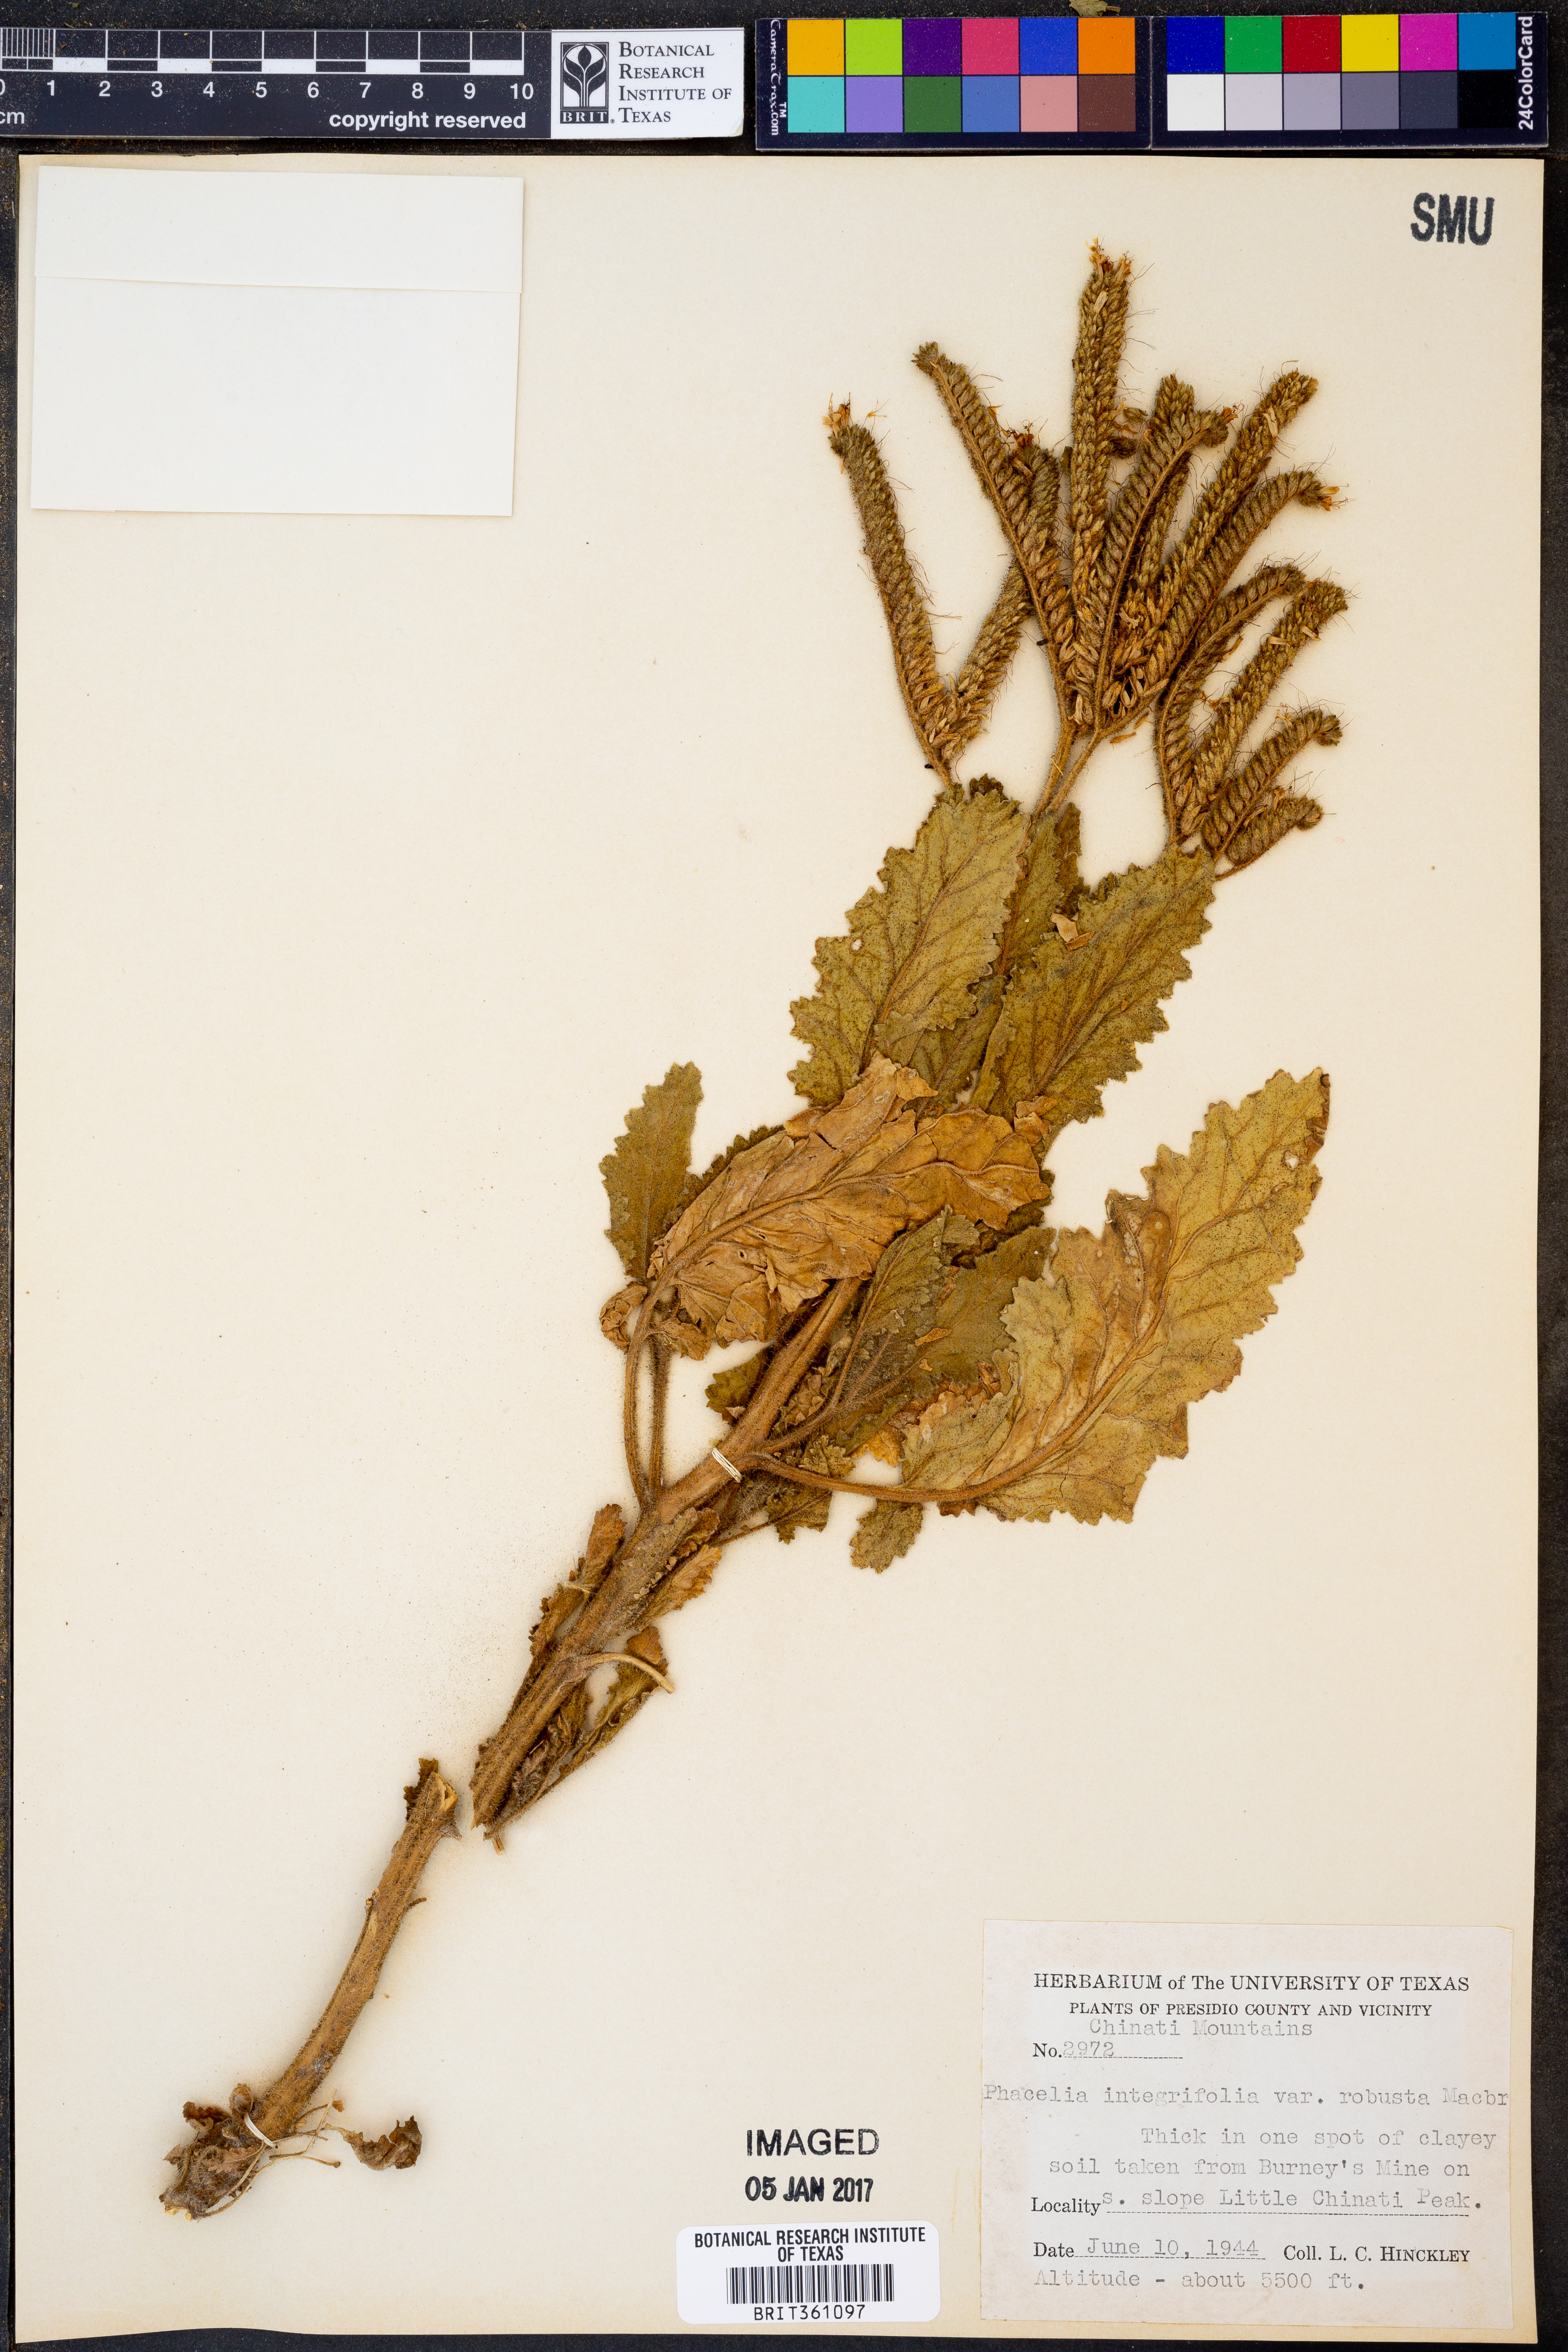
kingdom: Plantae
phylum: Tracheophyta
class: Magnoliopsida
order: Boraginales
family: Hydrophyllaceae
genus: Phacelia
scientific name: Phacelia robusta
